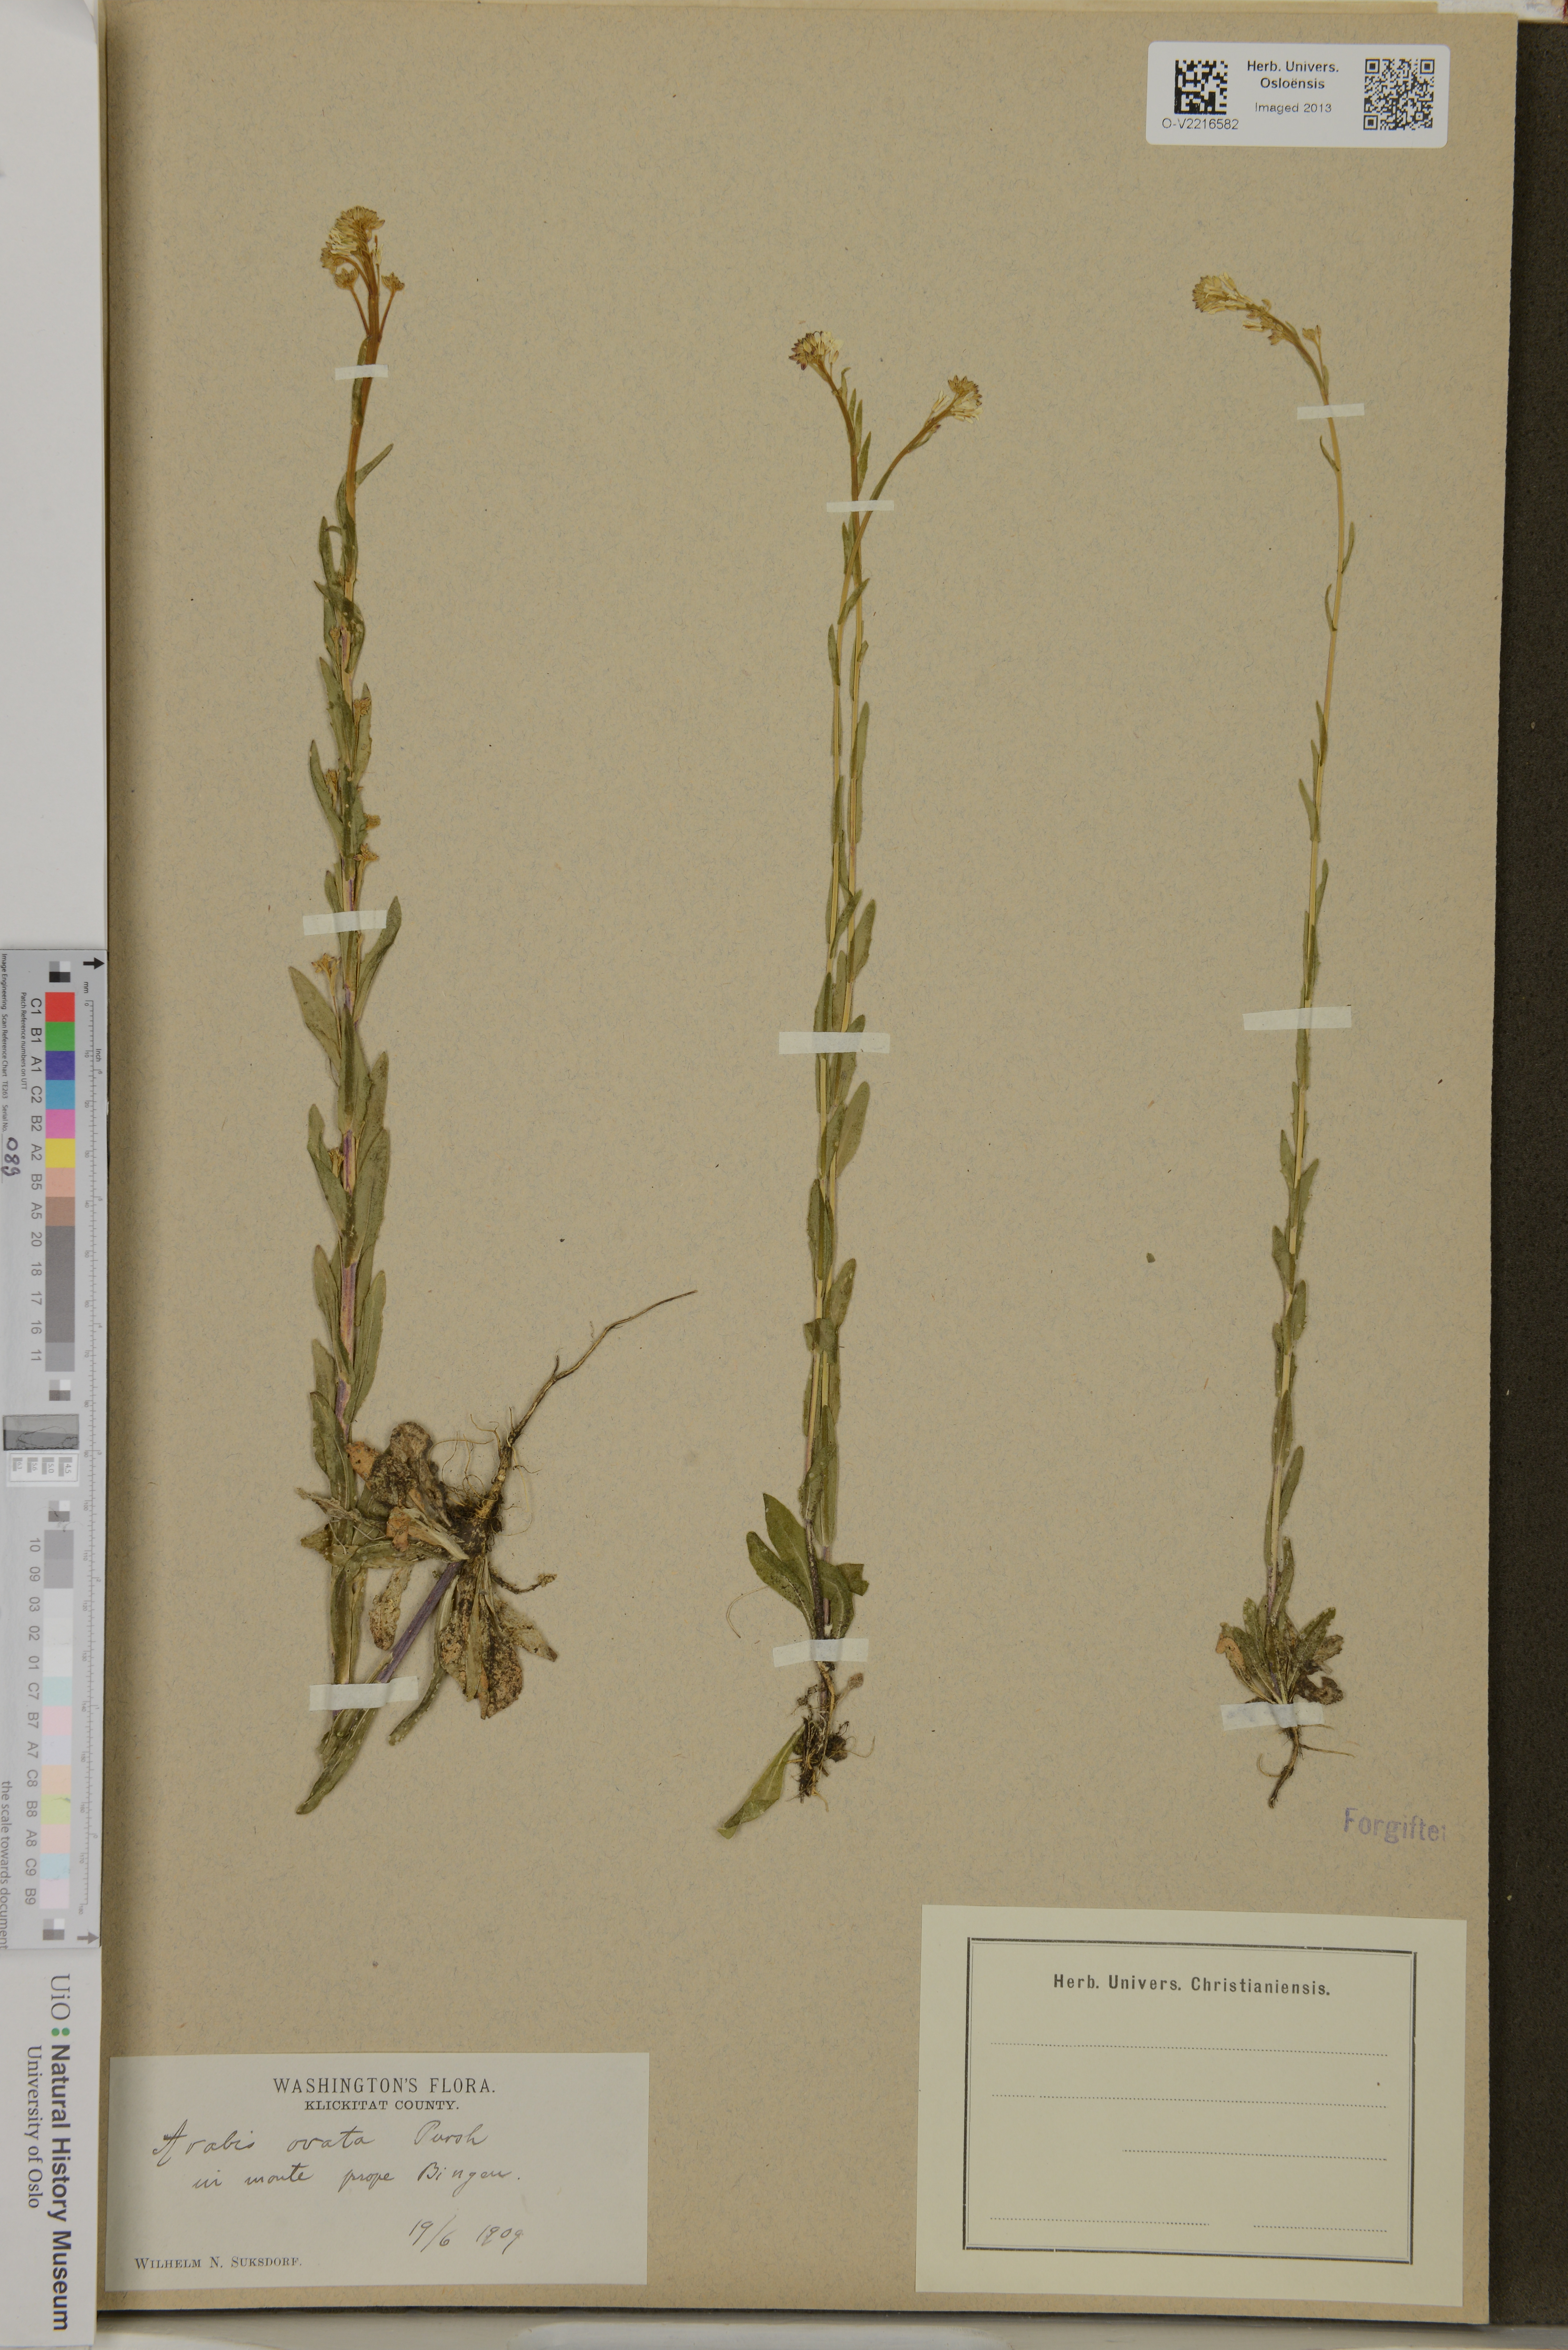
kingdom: Plantae
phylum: Tracheophyta
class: Magnoliopsida
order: Brassicales
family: Brassicaceae
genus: Borodinia
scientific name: Borodinia canadensis
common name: Sicklepod
